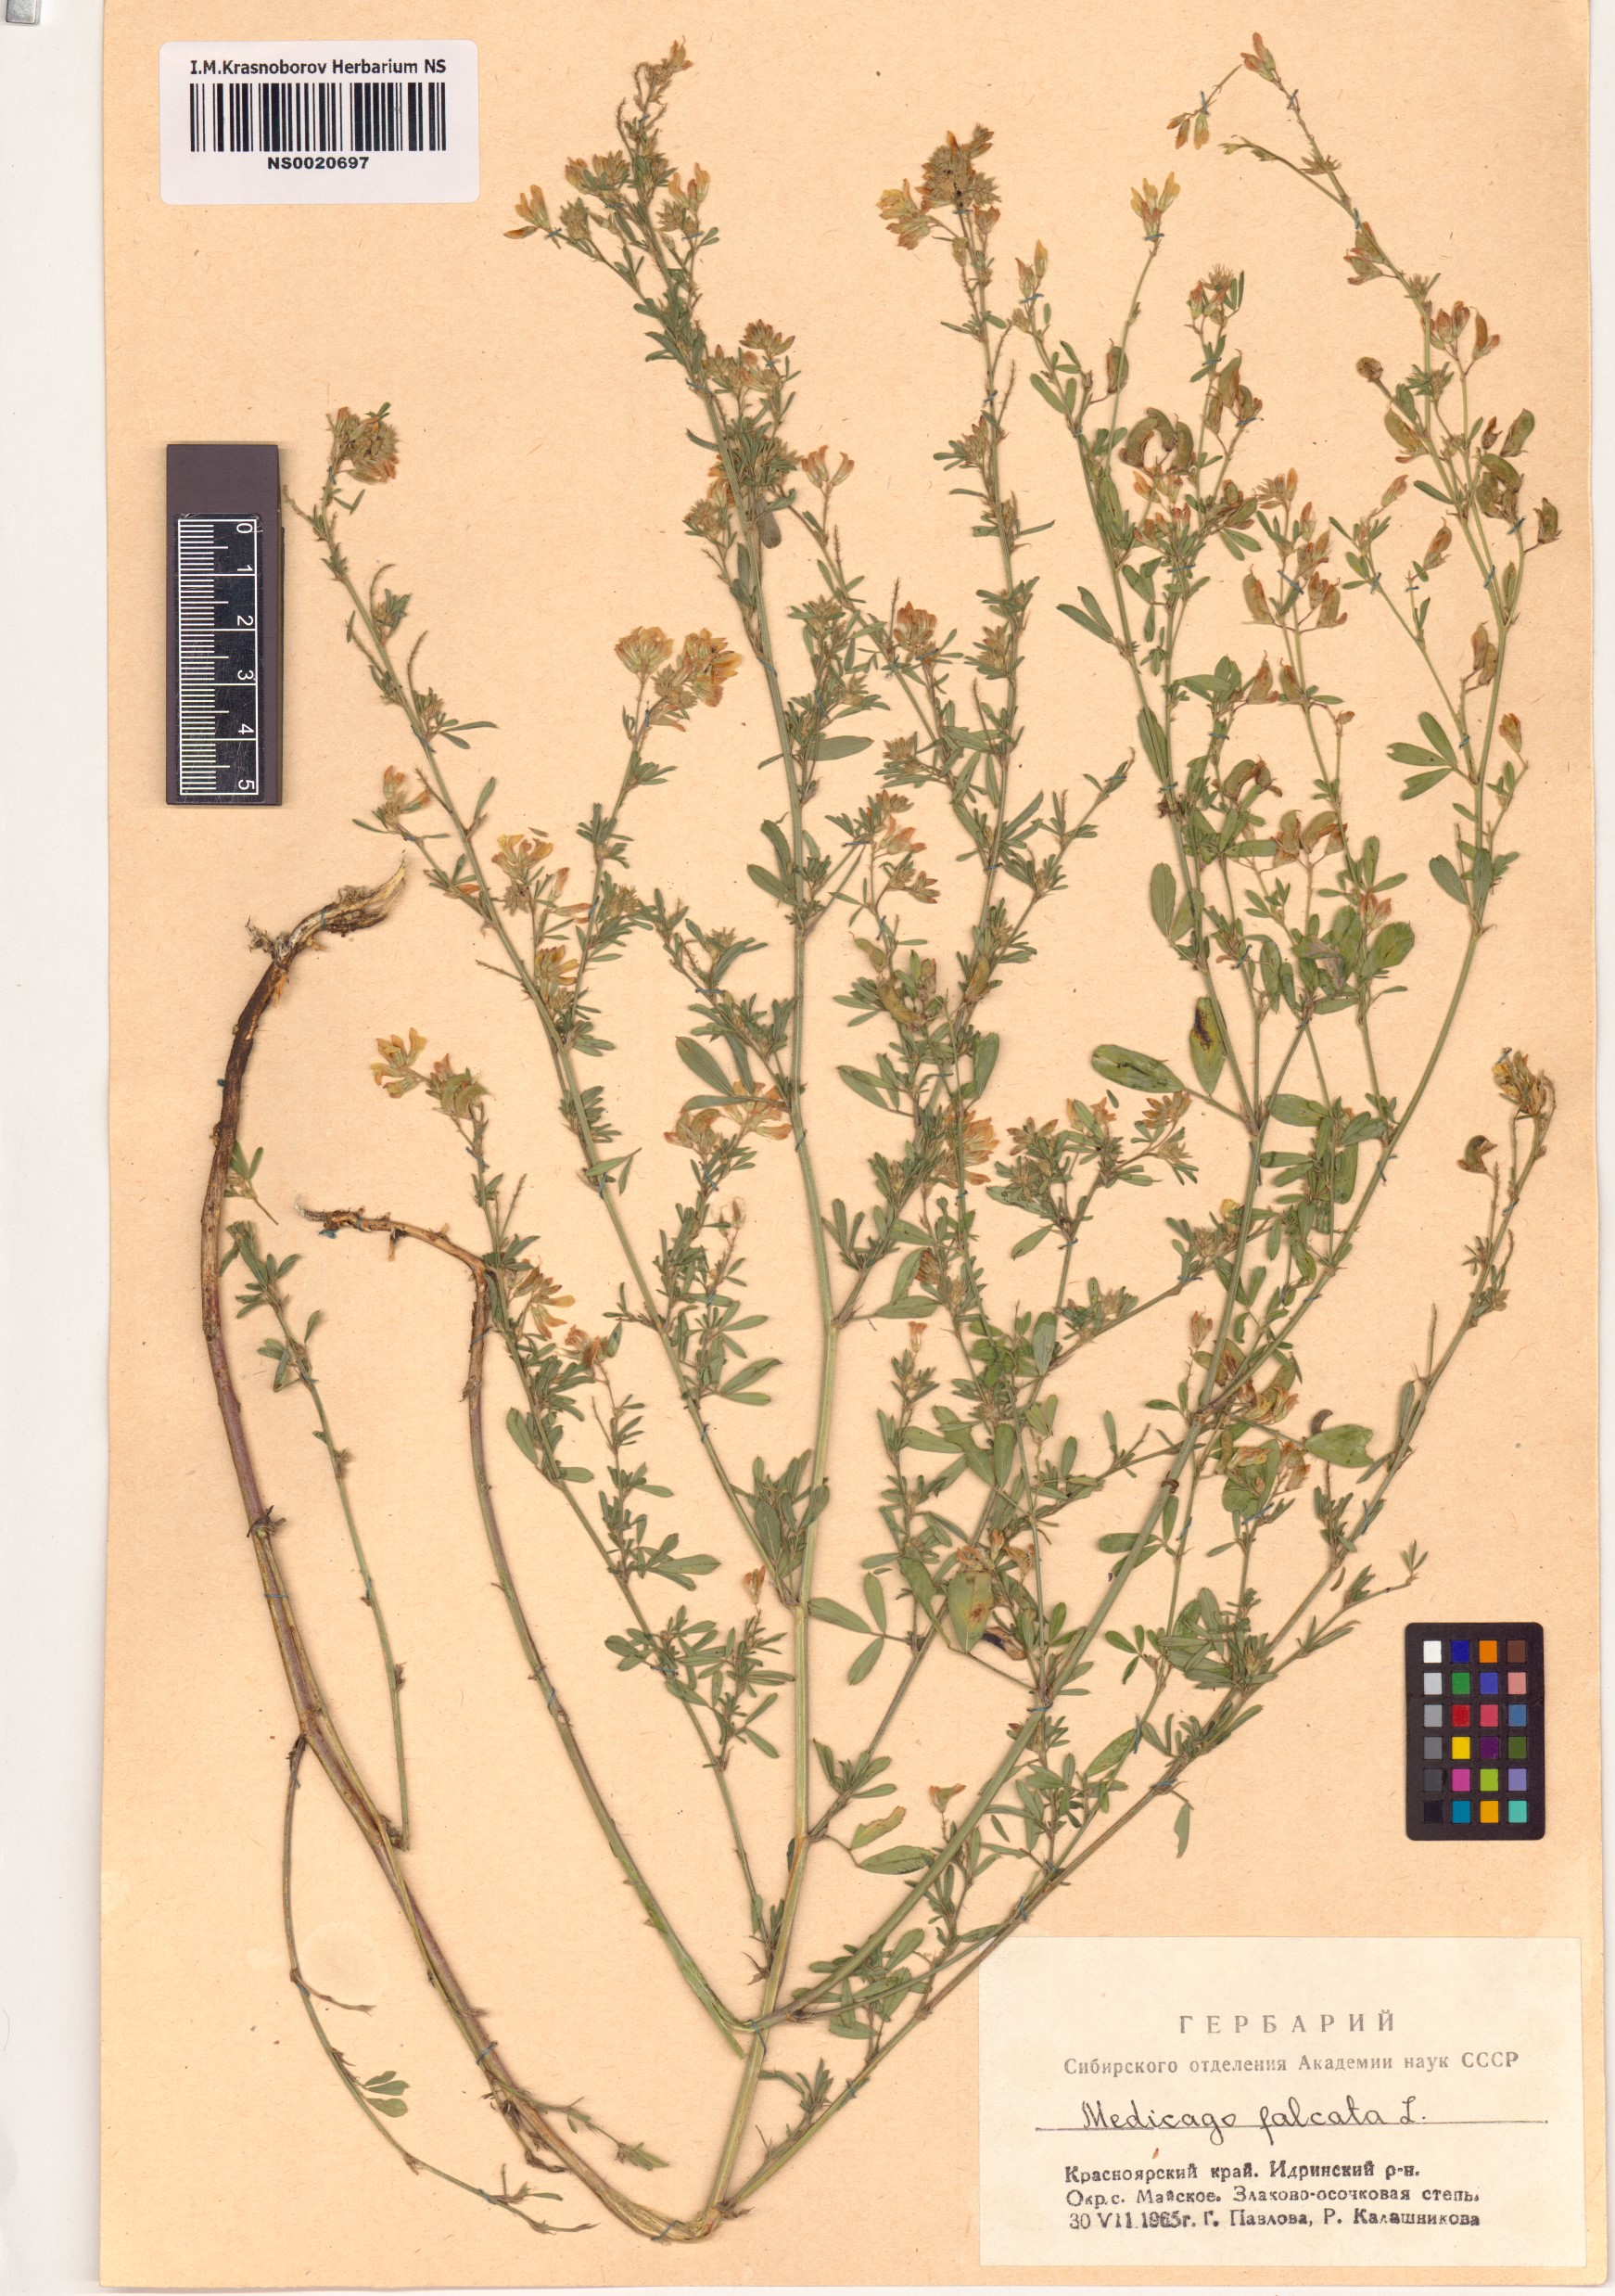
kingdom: Plantae
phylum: Tracheophyta
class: Magnoliopsida
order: Fabales
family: Fabaceae
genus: Medicago
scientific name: Medicago falcata
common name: Sickle medick
